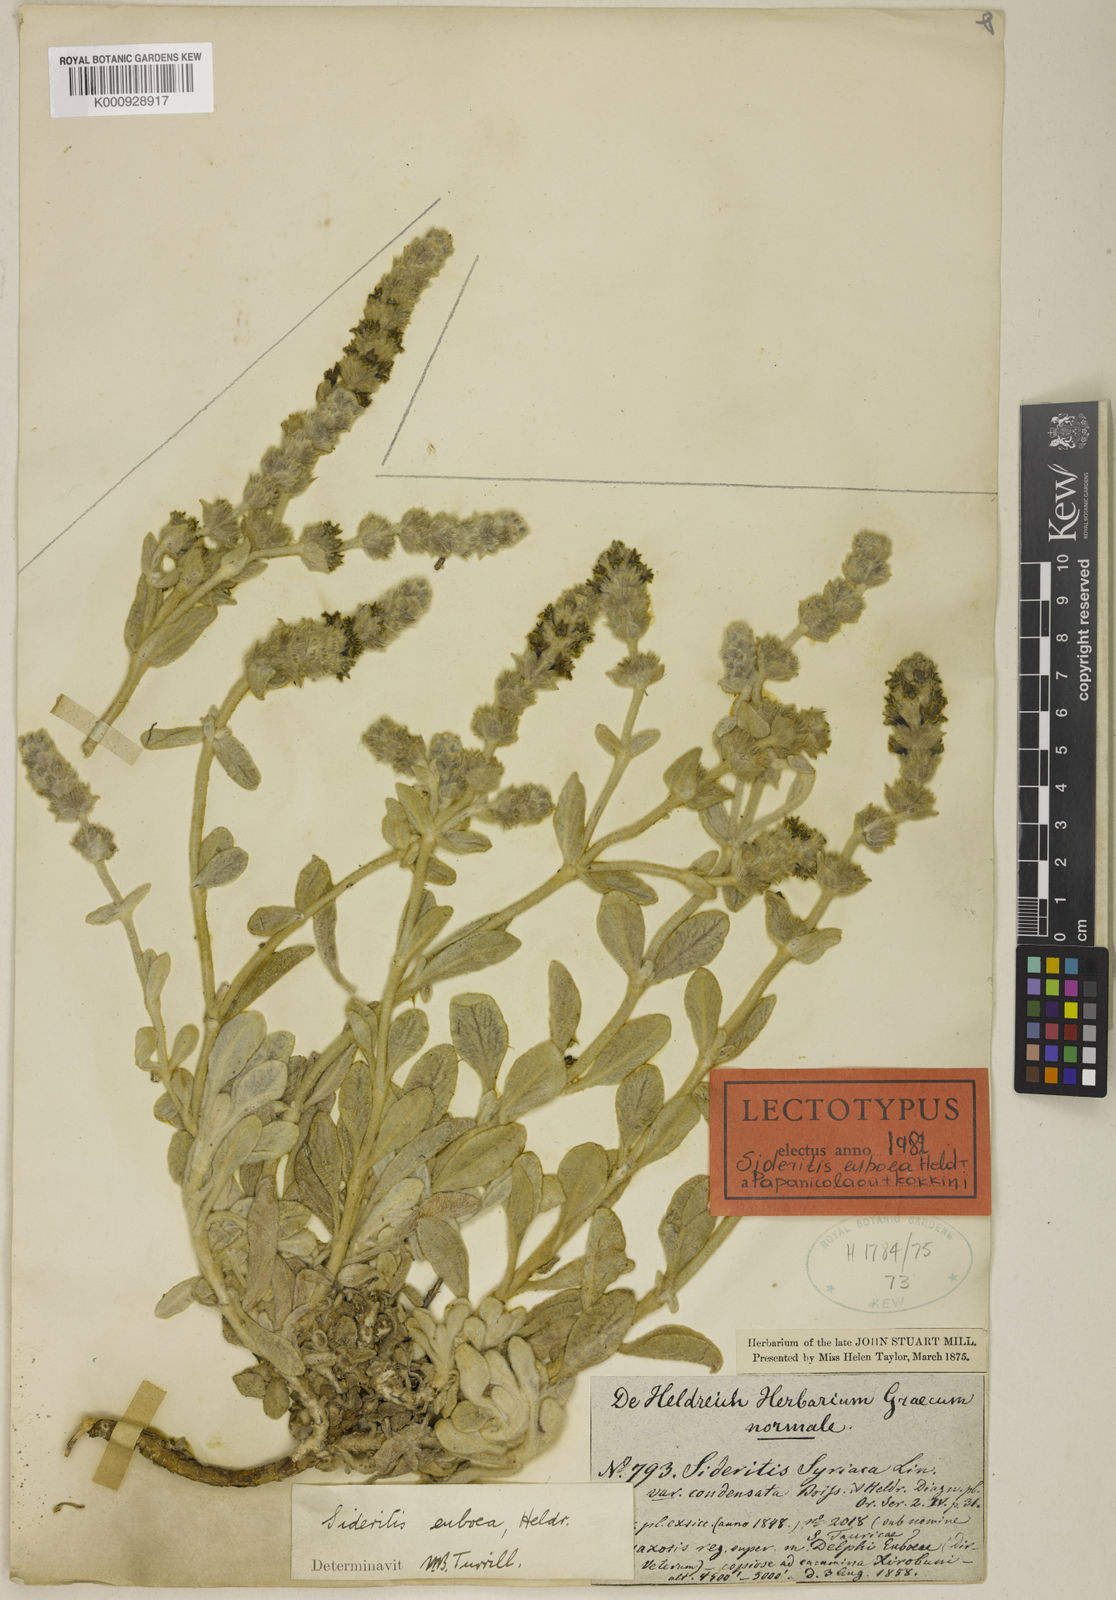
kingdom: Plantae
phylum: Tracheophyta
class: Magnoliopsida
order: Lamiales
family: Lamiaceae
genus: Sideritis
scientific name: Sideritis syriaca
